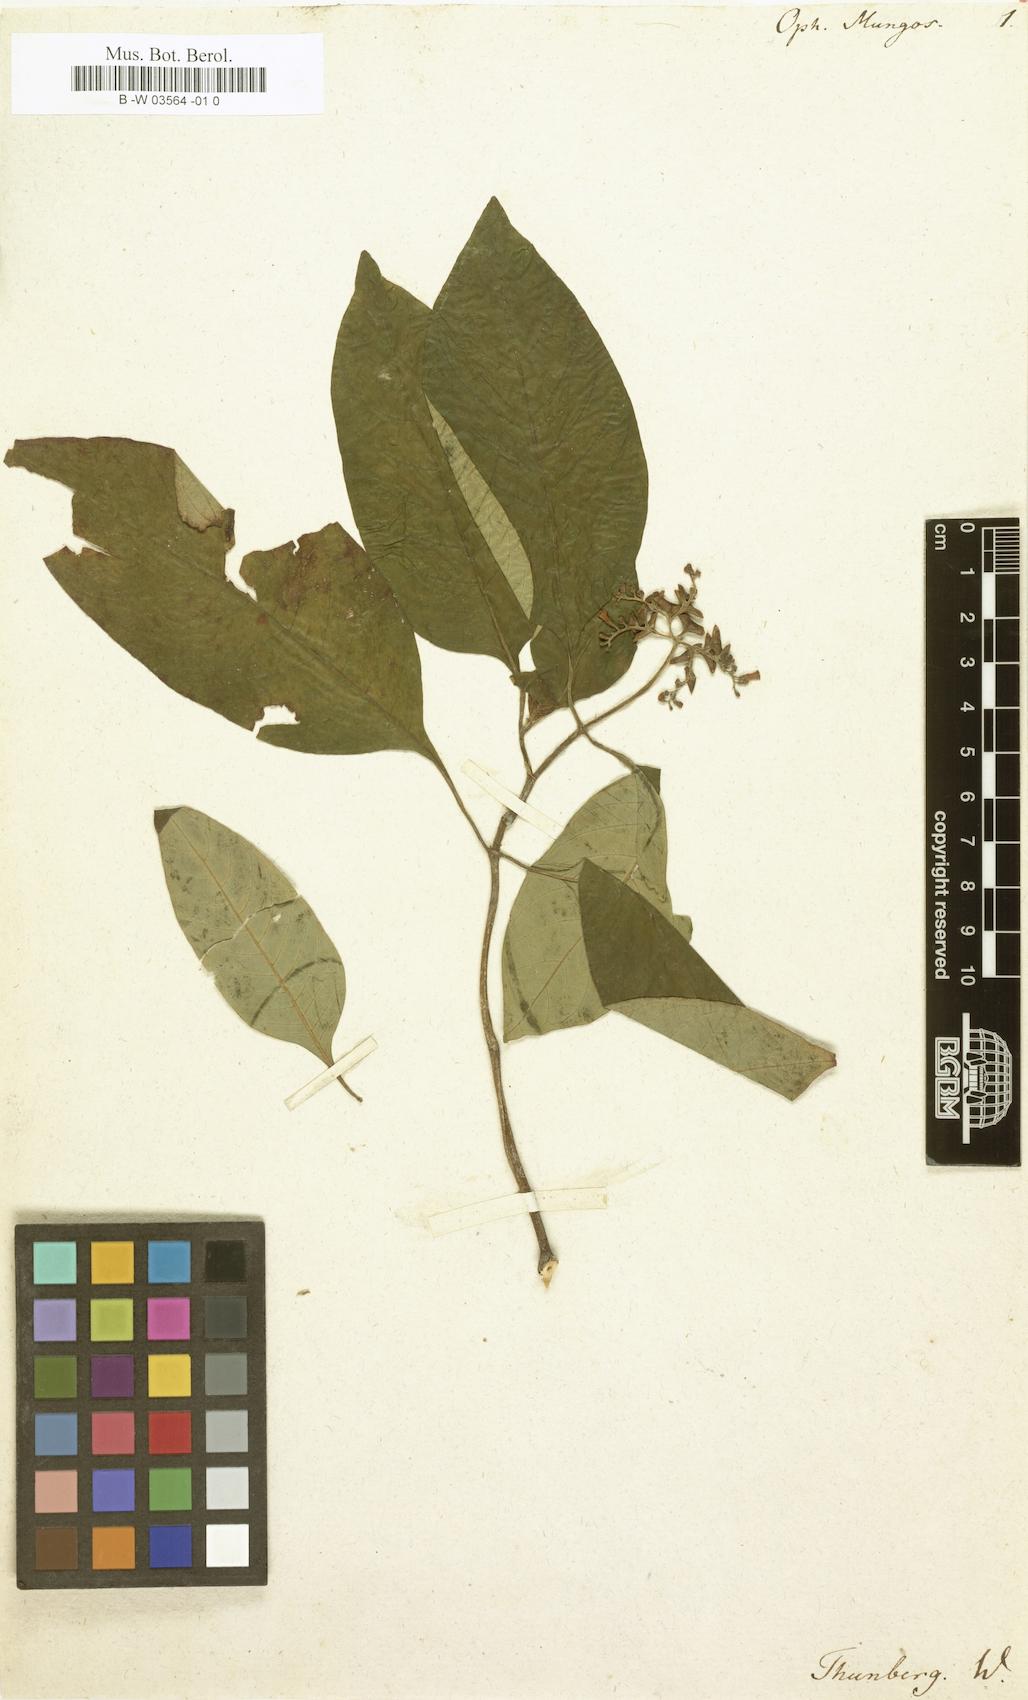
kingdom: Plantae
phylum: Tracheophyta
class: Magnoliopsida
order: Gentianales
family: Rubiaceae
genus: Ophiorrhiza
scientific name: Ophiorrhiza mungos
